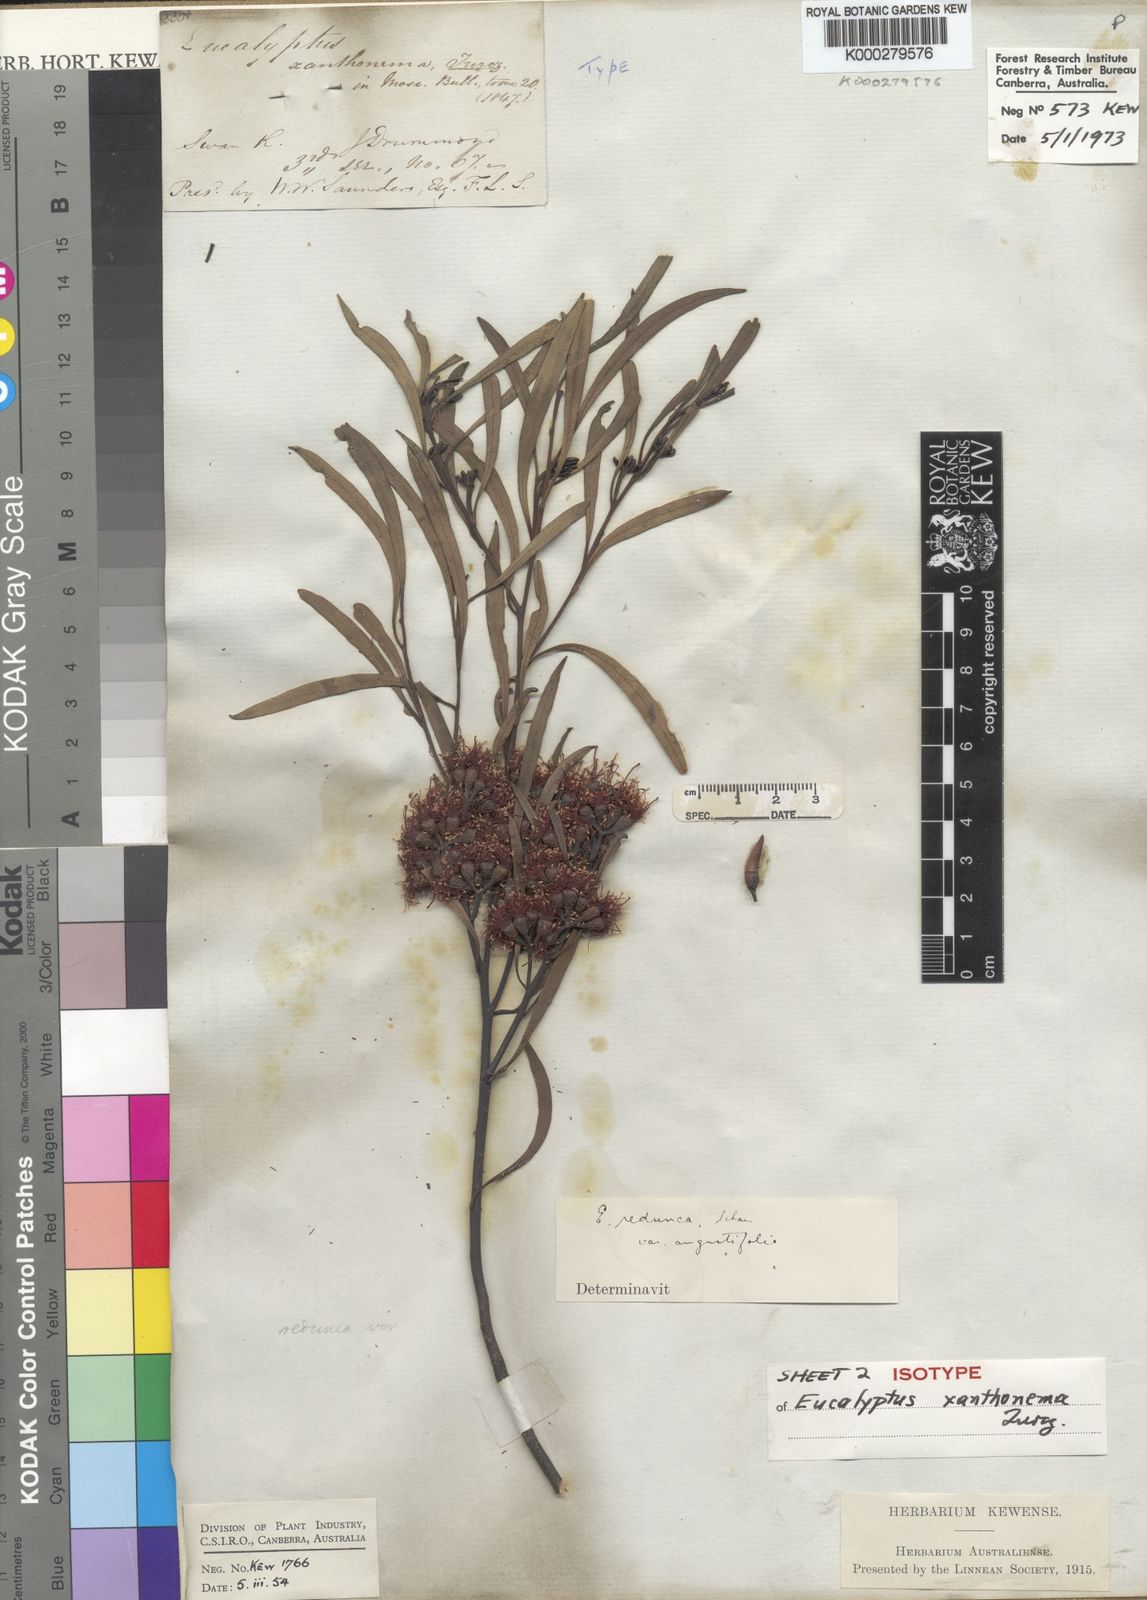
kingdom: Plantae
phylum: Tracheophyta
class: Magnoliopsida
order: Myrtales
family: Myrtaceae
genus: Eucalyptus
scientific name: Eucalyptus xanthonema
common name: Needilup mallee
